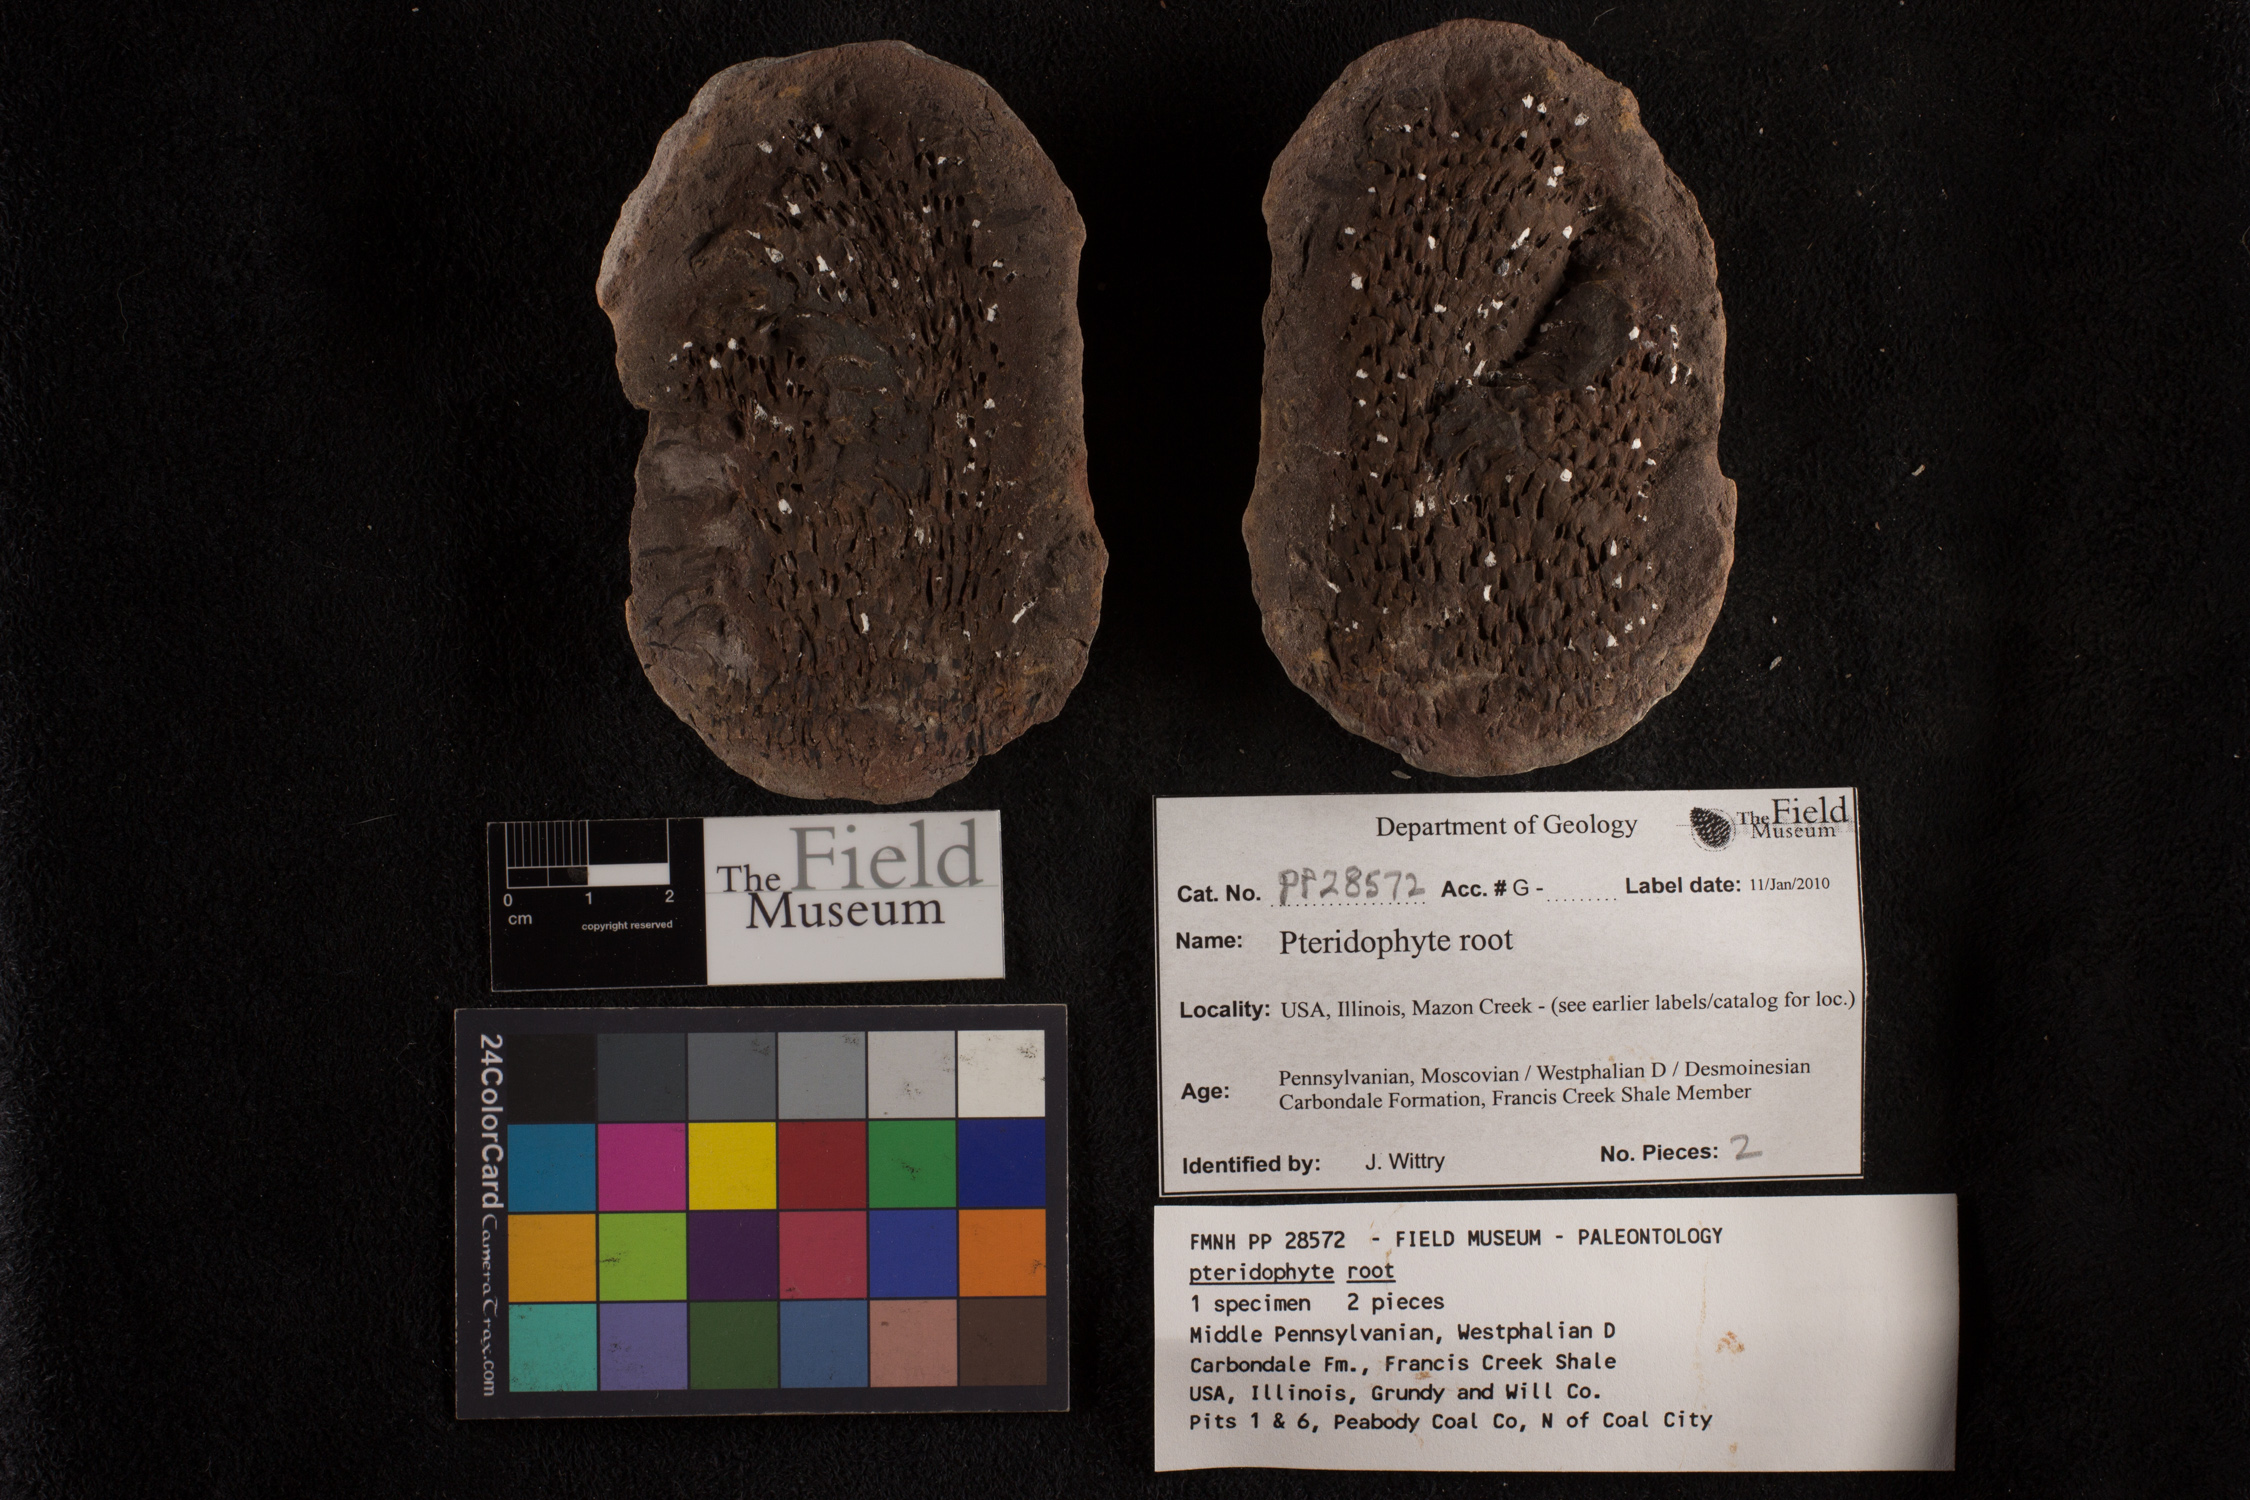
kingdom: Plantae
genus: Rhacophyllum
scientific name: Rhacophyllum
